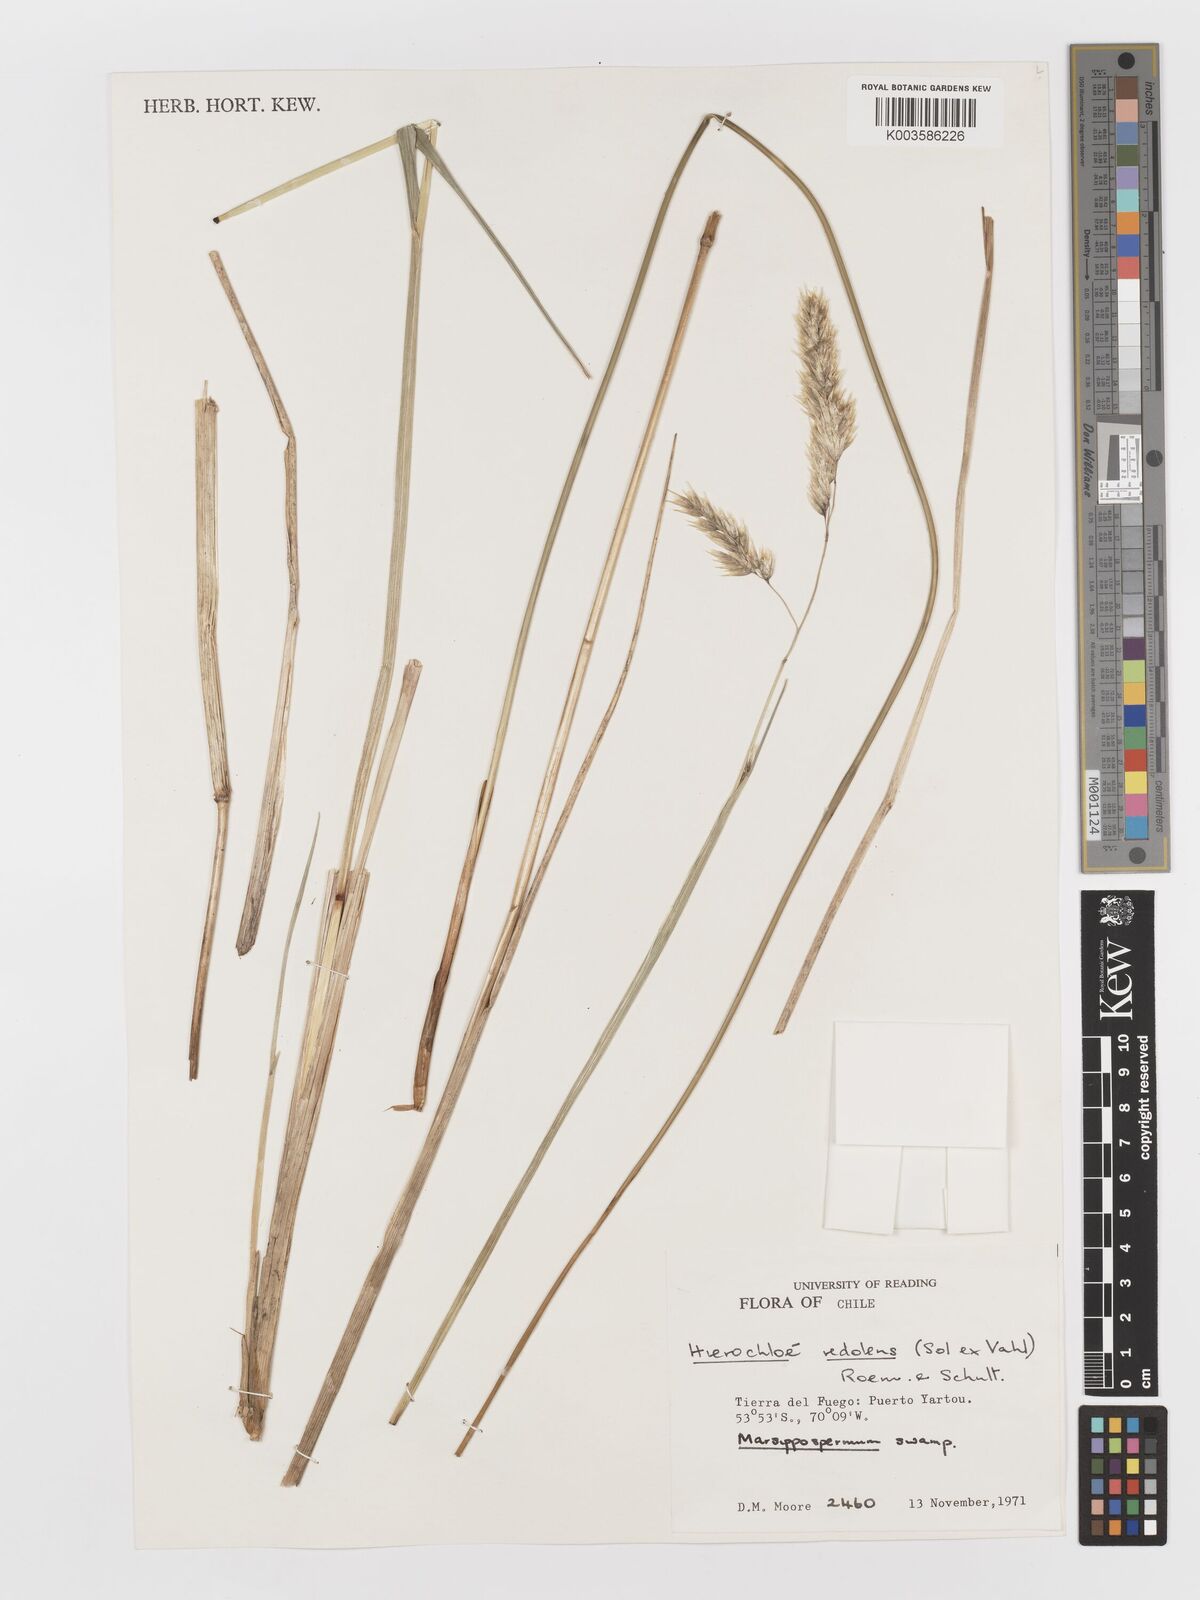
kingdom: Plantae
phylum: Tracheophyta
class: Liliopsida
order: Poales
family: Poaceae
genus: Anthoxanthum
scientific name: Anthoxanthum redolens
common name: Sweet holy grass
